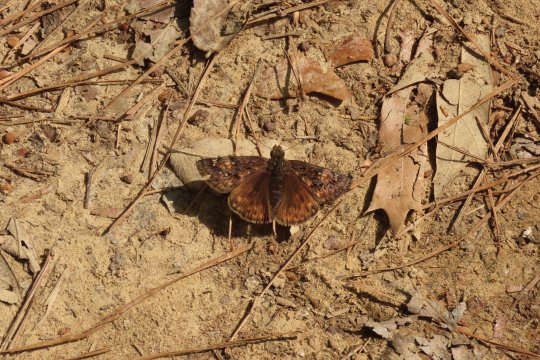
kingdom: Animalia
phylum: Arthropoda
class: Insecta
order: Lepidoptera
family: Hesperiidae
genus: Gesta
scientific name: Gesta
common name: Juvenal's Duskywing
